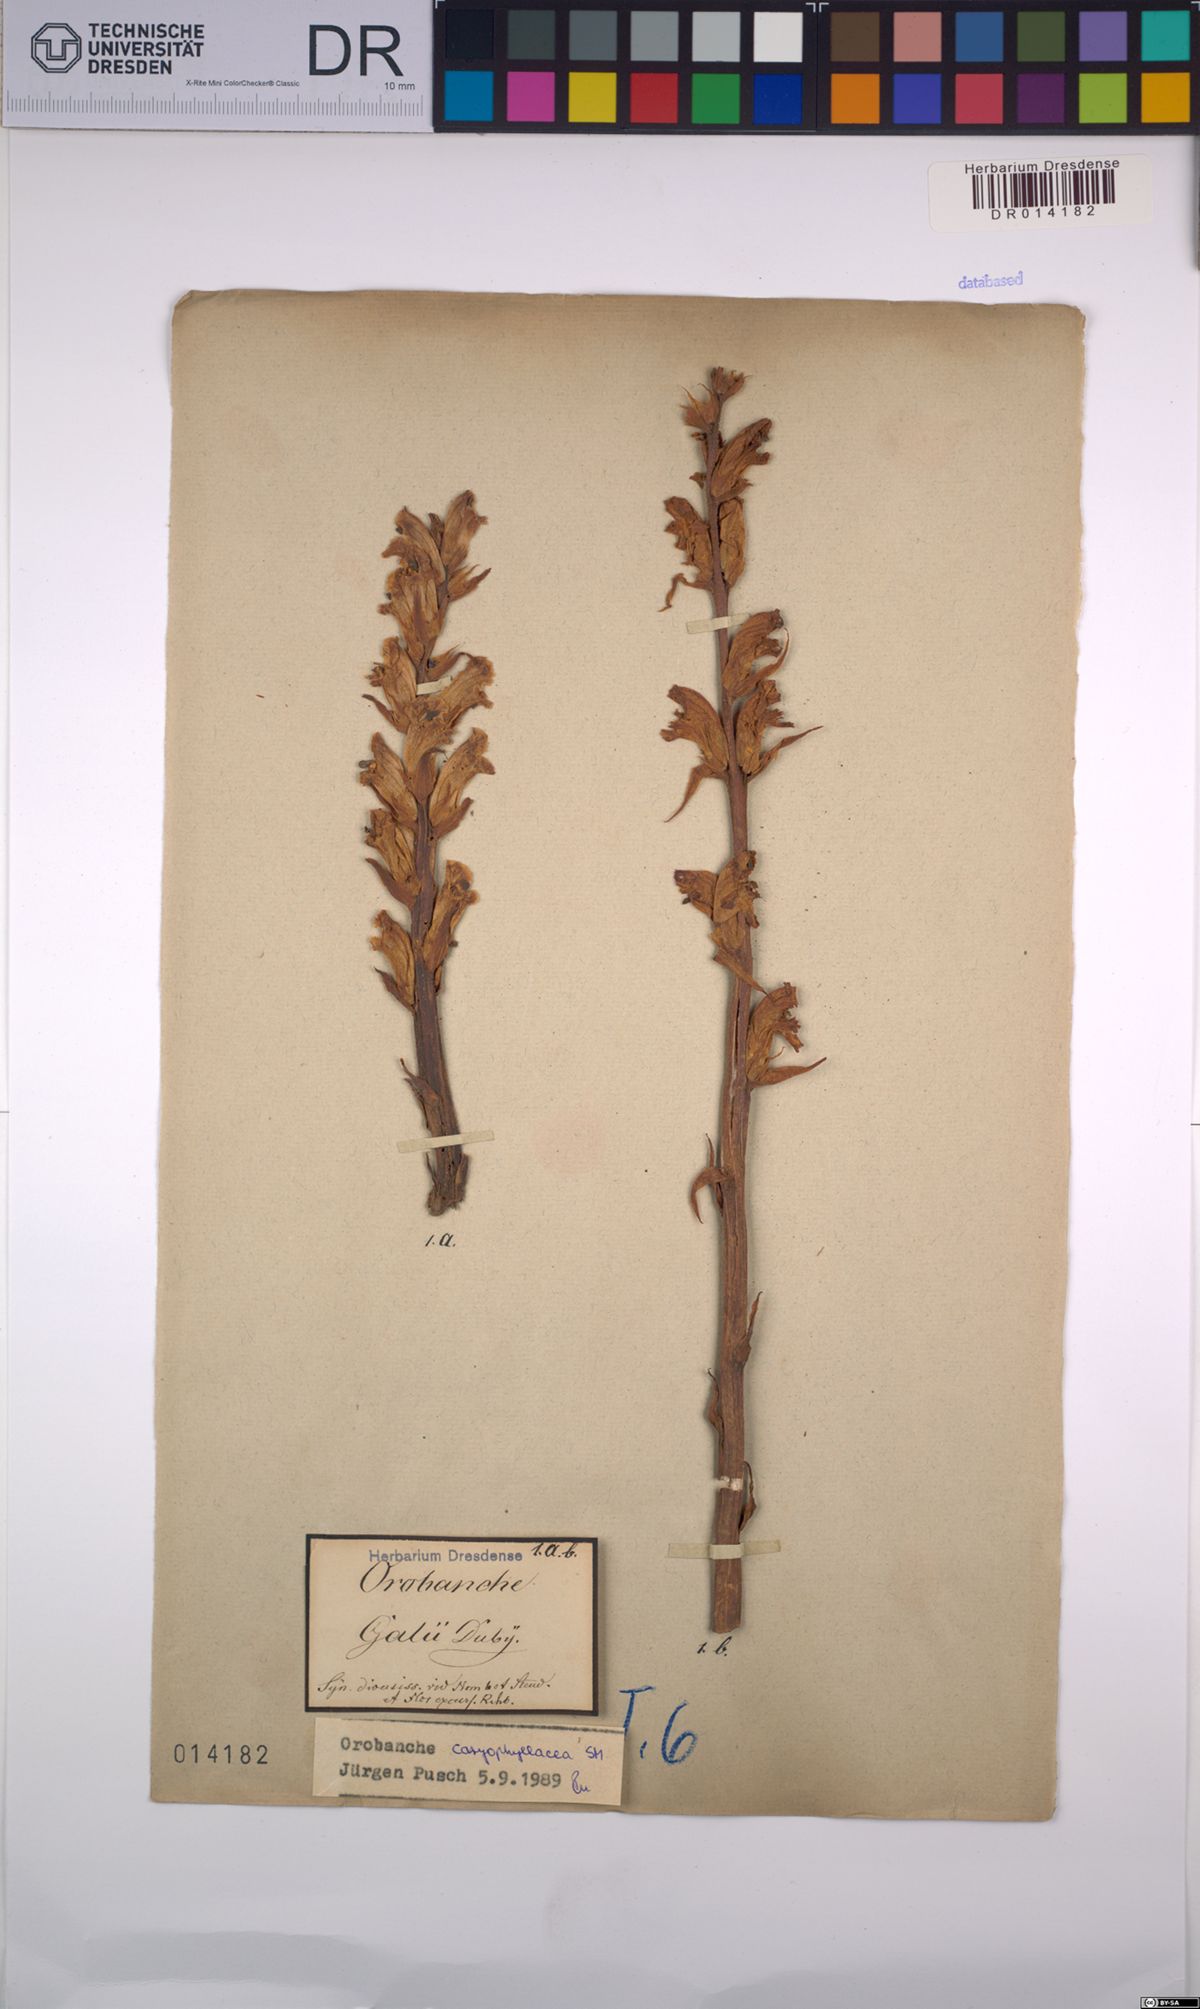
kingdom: Plantae
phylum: Tracheophyta
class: Magnoliopsida
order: Lamiales
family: Orobanchaceae
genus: Orobanche
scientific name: Orobanche caryophyllacea
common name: Bedstraw broomrape
